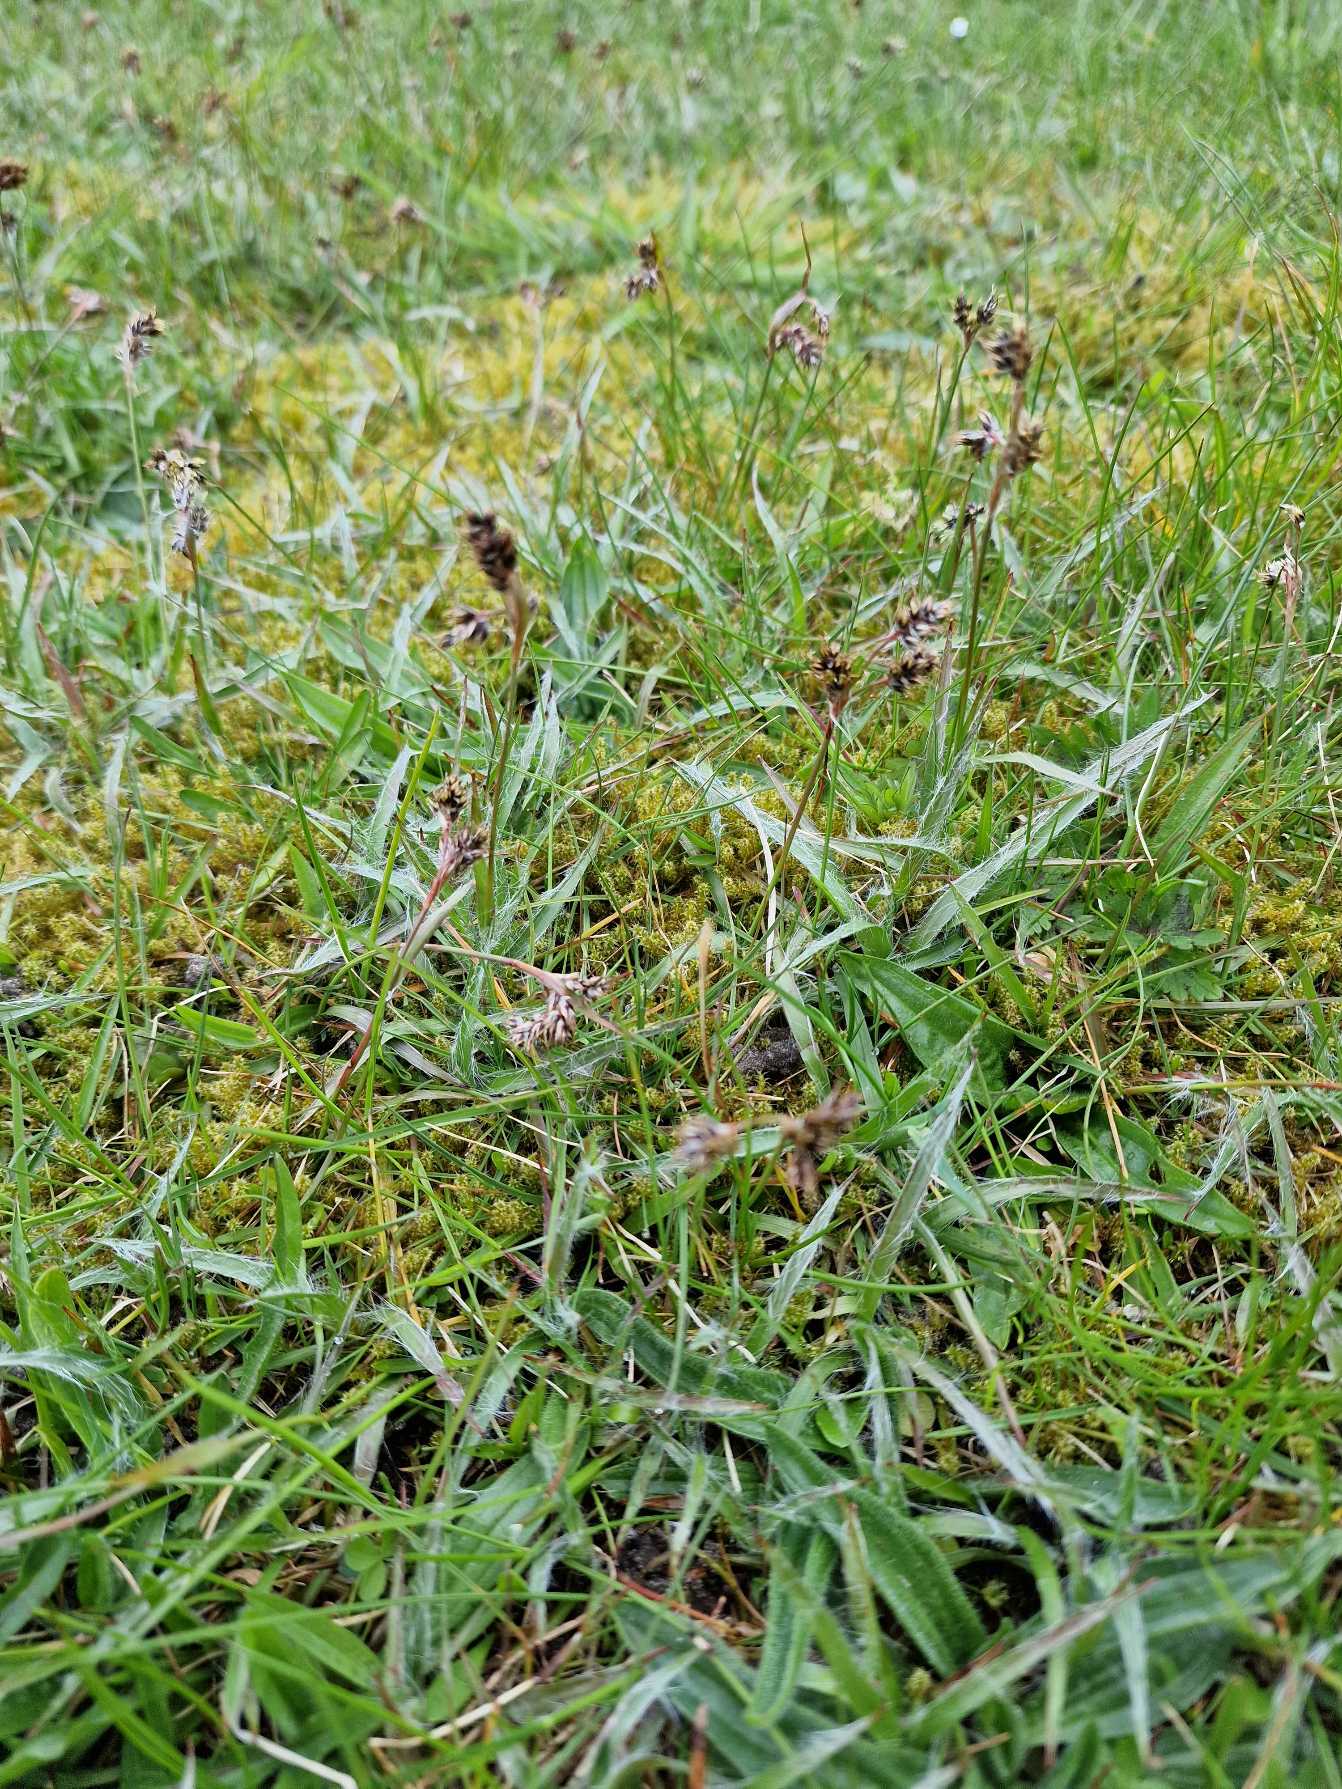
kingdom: Plantae
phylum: Tracheophyta
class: Liliopsida
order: Poales
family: Juncaceae
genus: Luzula
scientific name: Luzula campestris
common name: Mark-frytle
